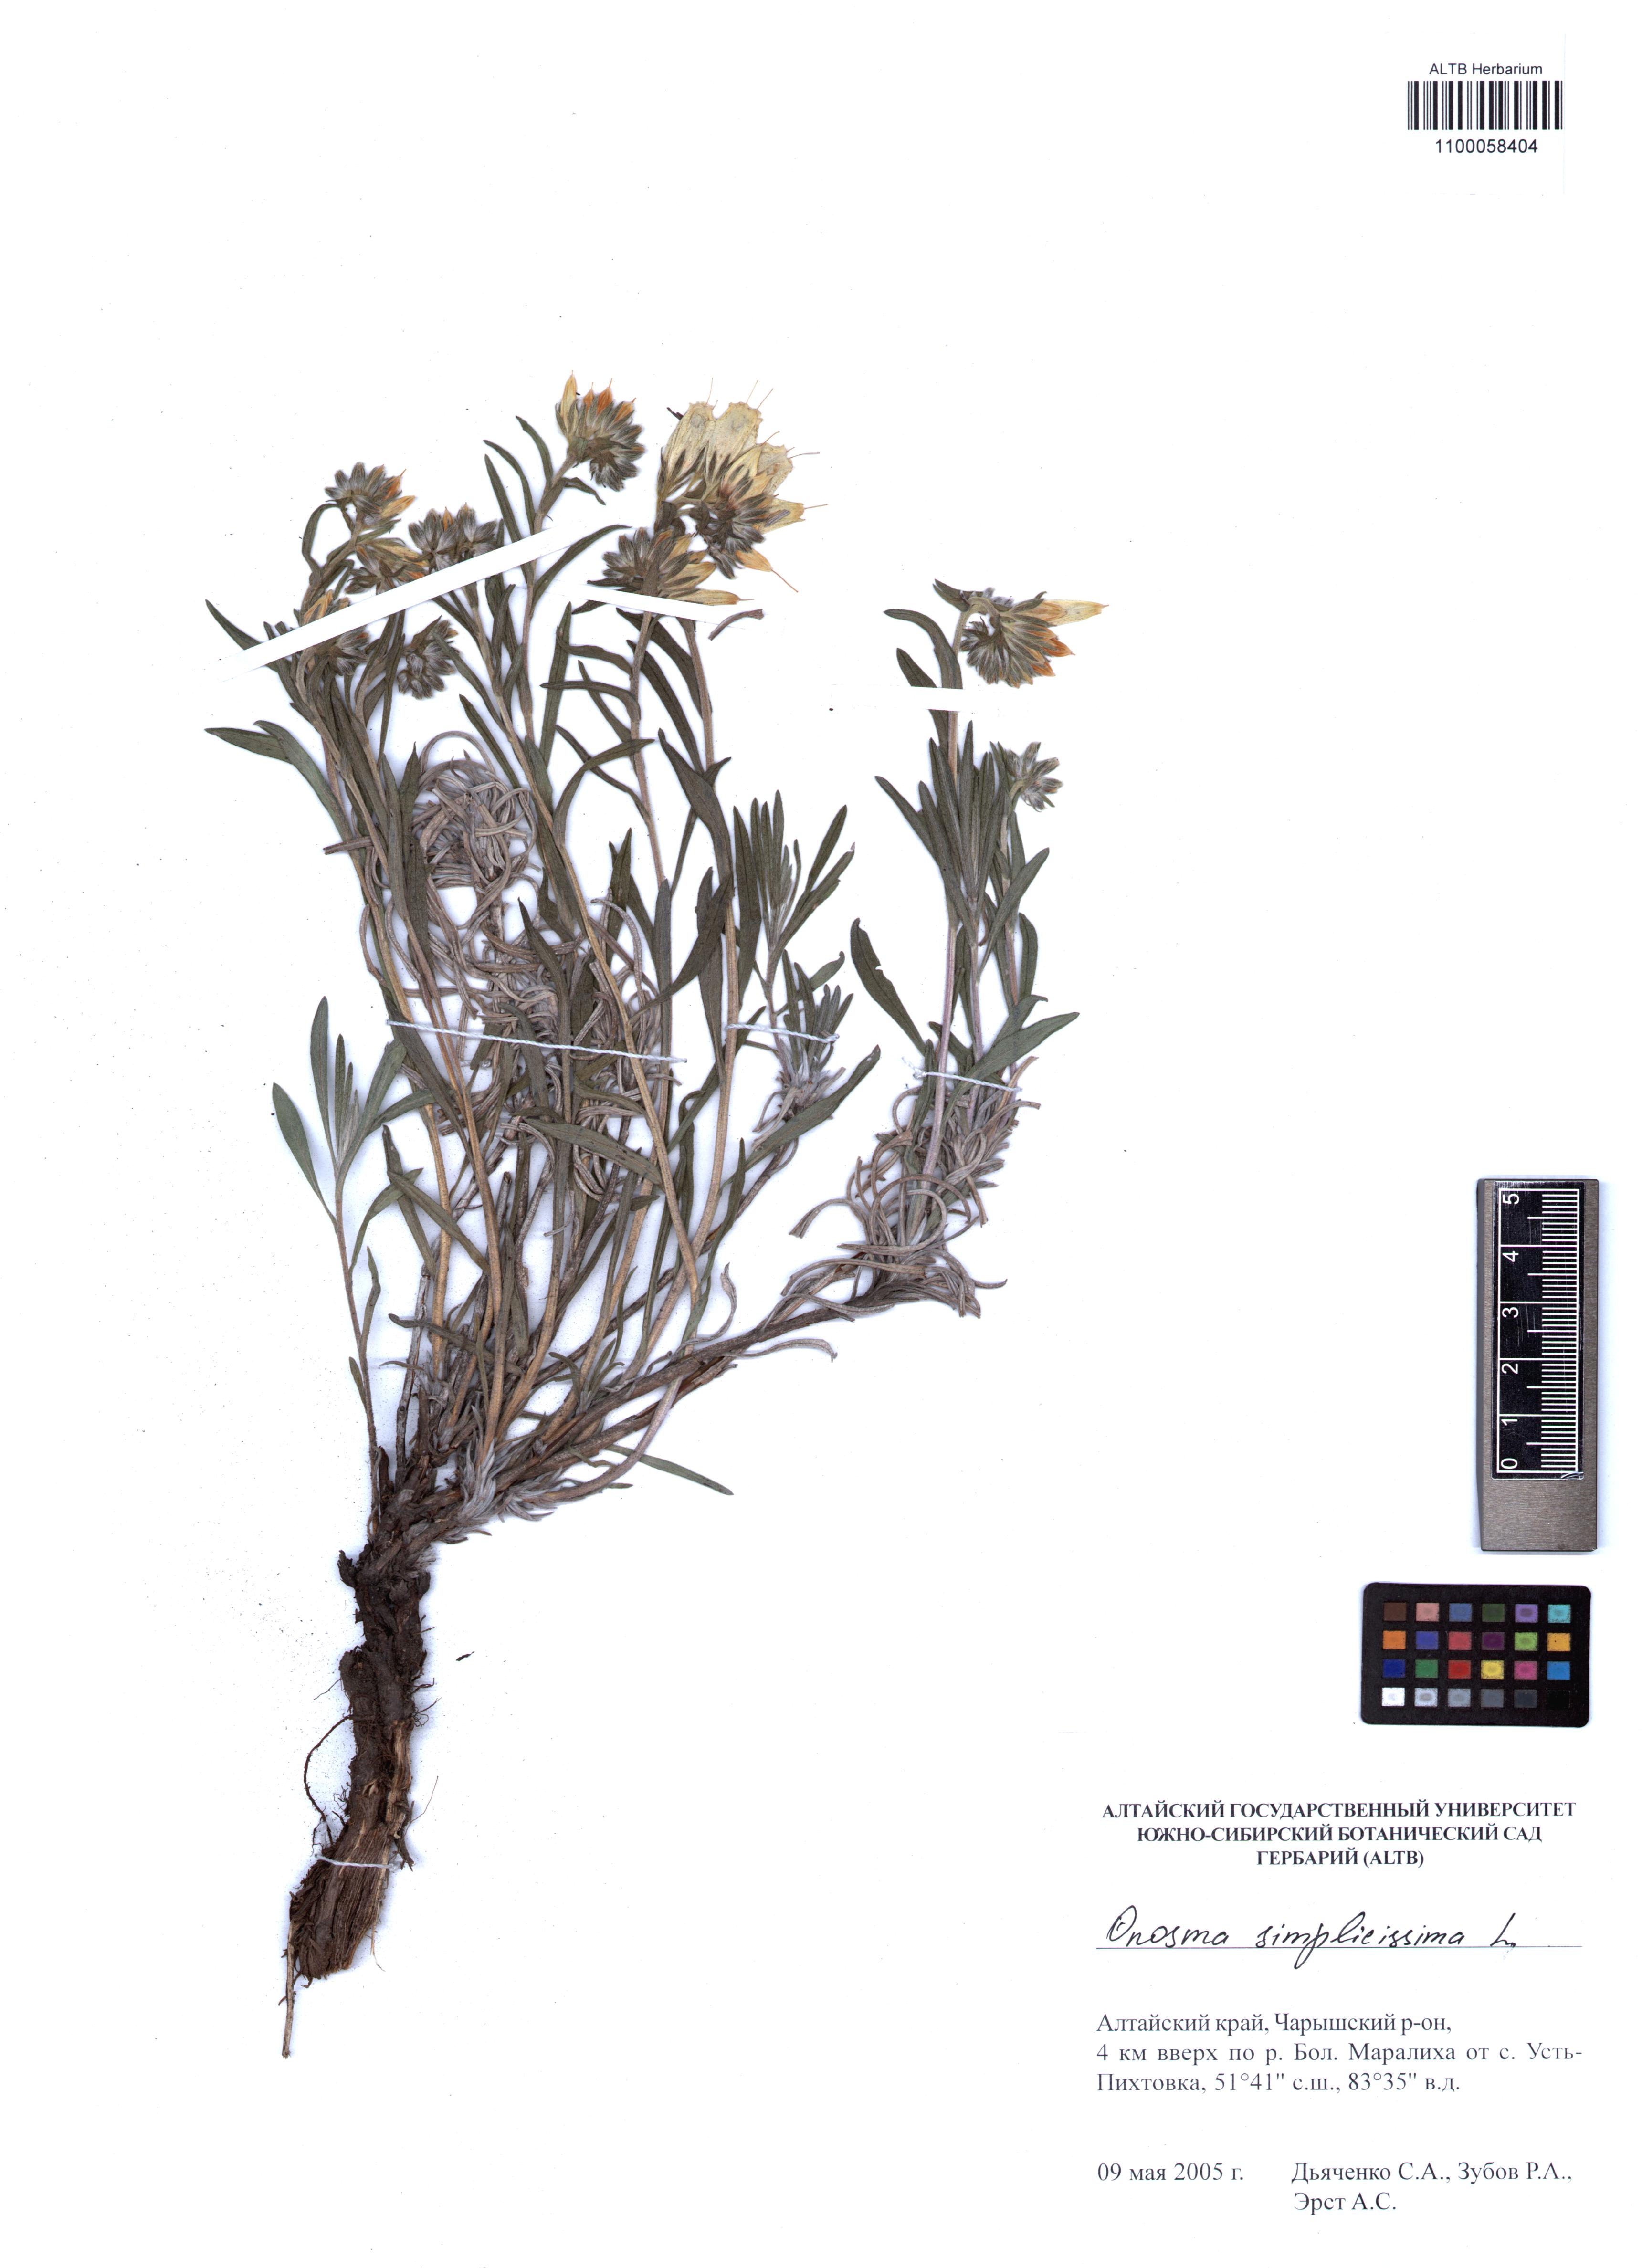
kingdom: Plantae
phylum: Tracheophyta
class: Magnoliopsida
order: Boraginales
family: Boraginaceae
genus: Onosma
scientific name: Onosma simplicissima
